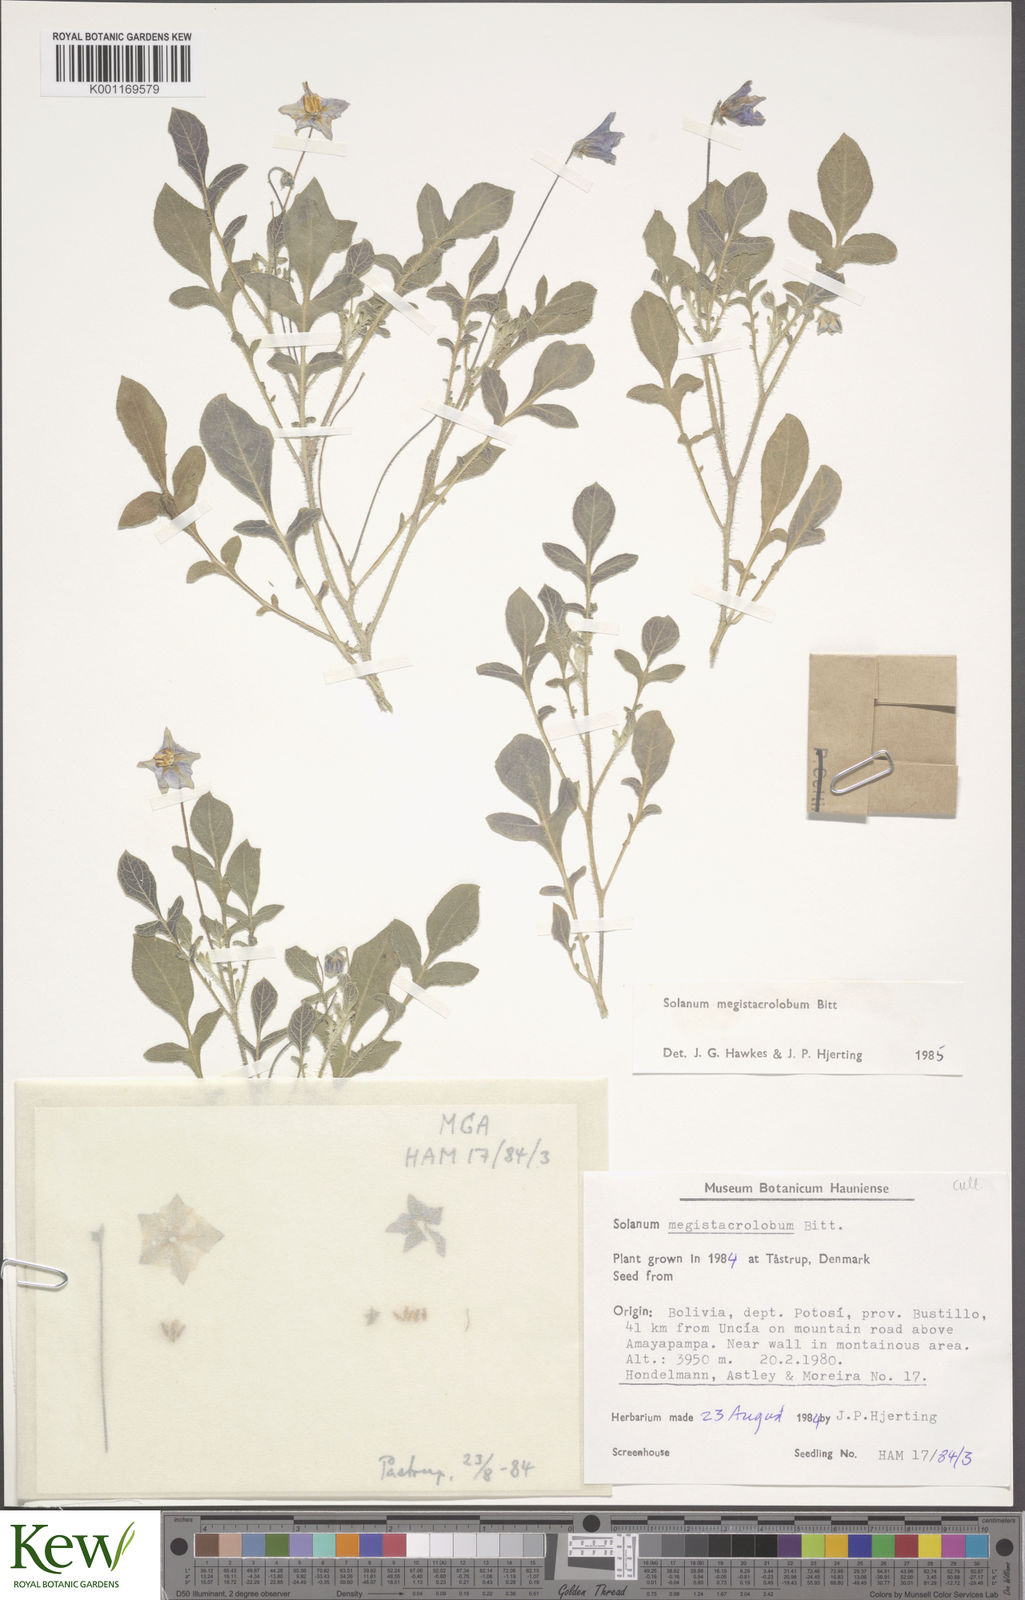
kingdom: Plantae
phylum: Tracheophyta
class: Magnoliopsida
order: Solanales
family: Solanaceae
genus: Solanum
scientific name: Solanum boliviense
